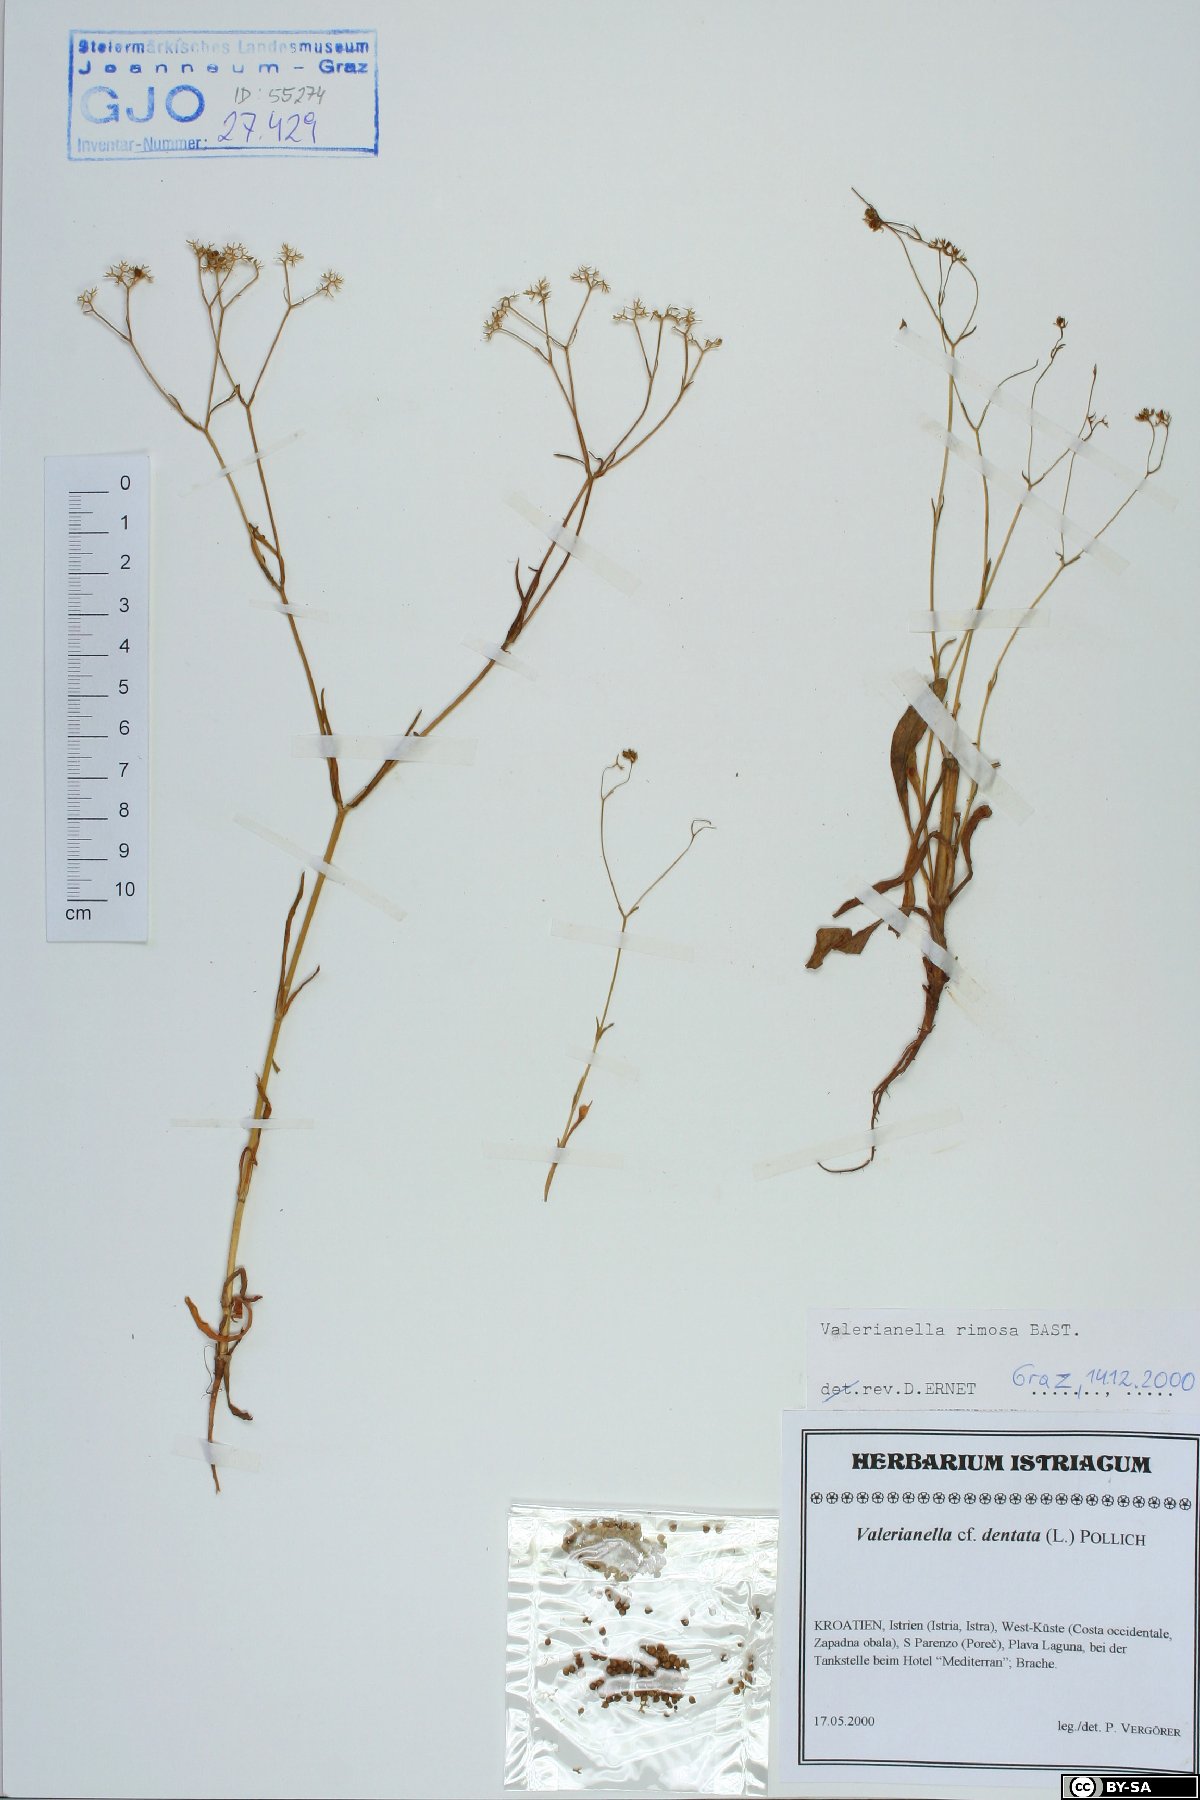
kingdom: Plantae
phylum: Tracheophyta
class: Magnoliopsida
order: Dipsacales
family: Caprifoliaceae
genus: Valerianella
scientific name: Valerianella rimosa
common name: Broad-fruited cornsalad
